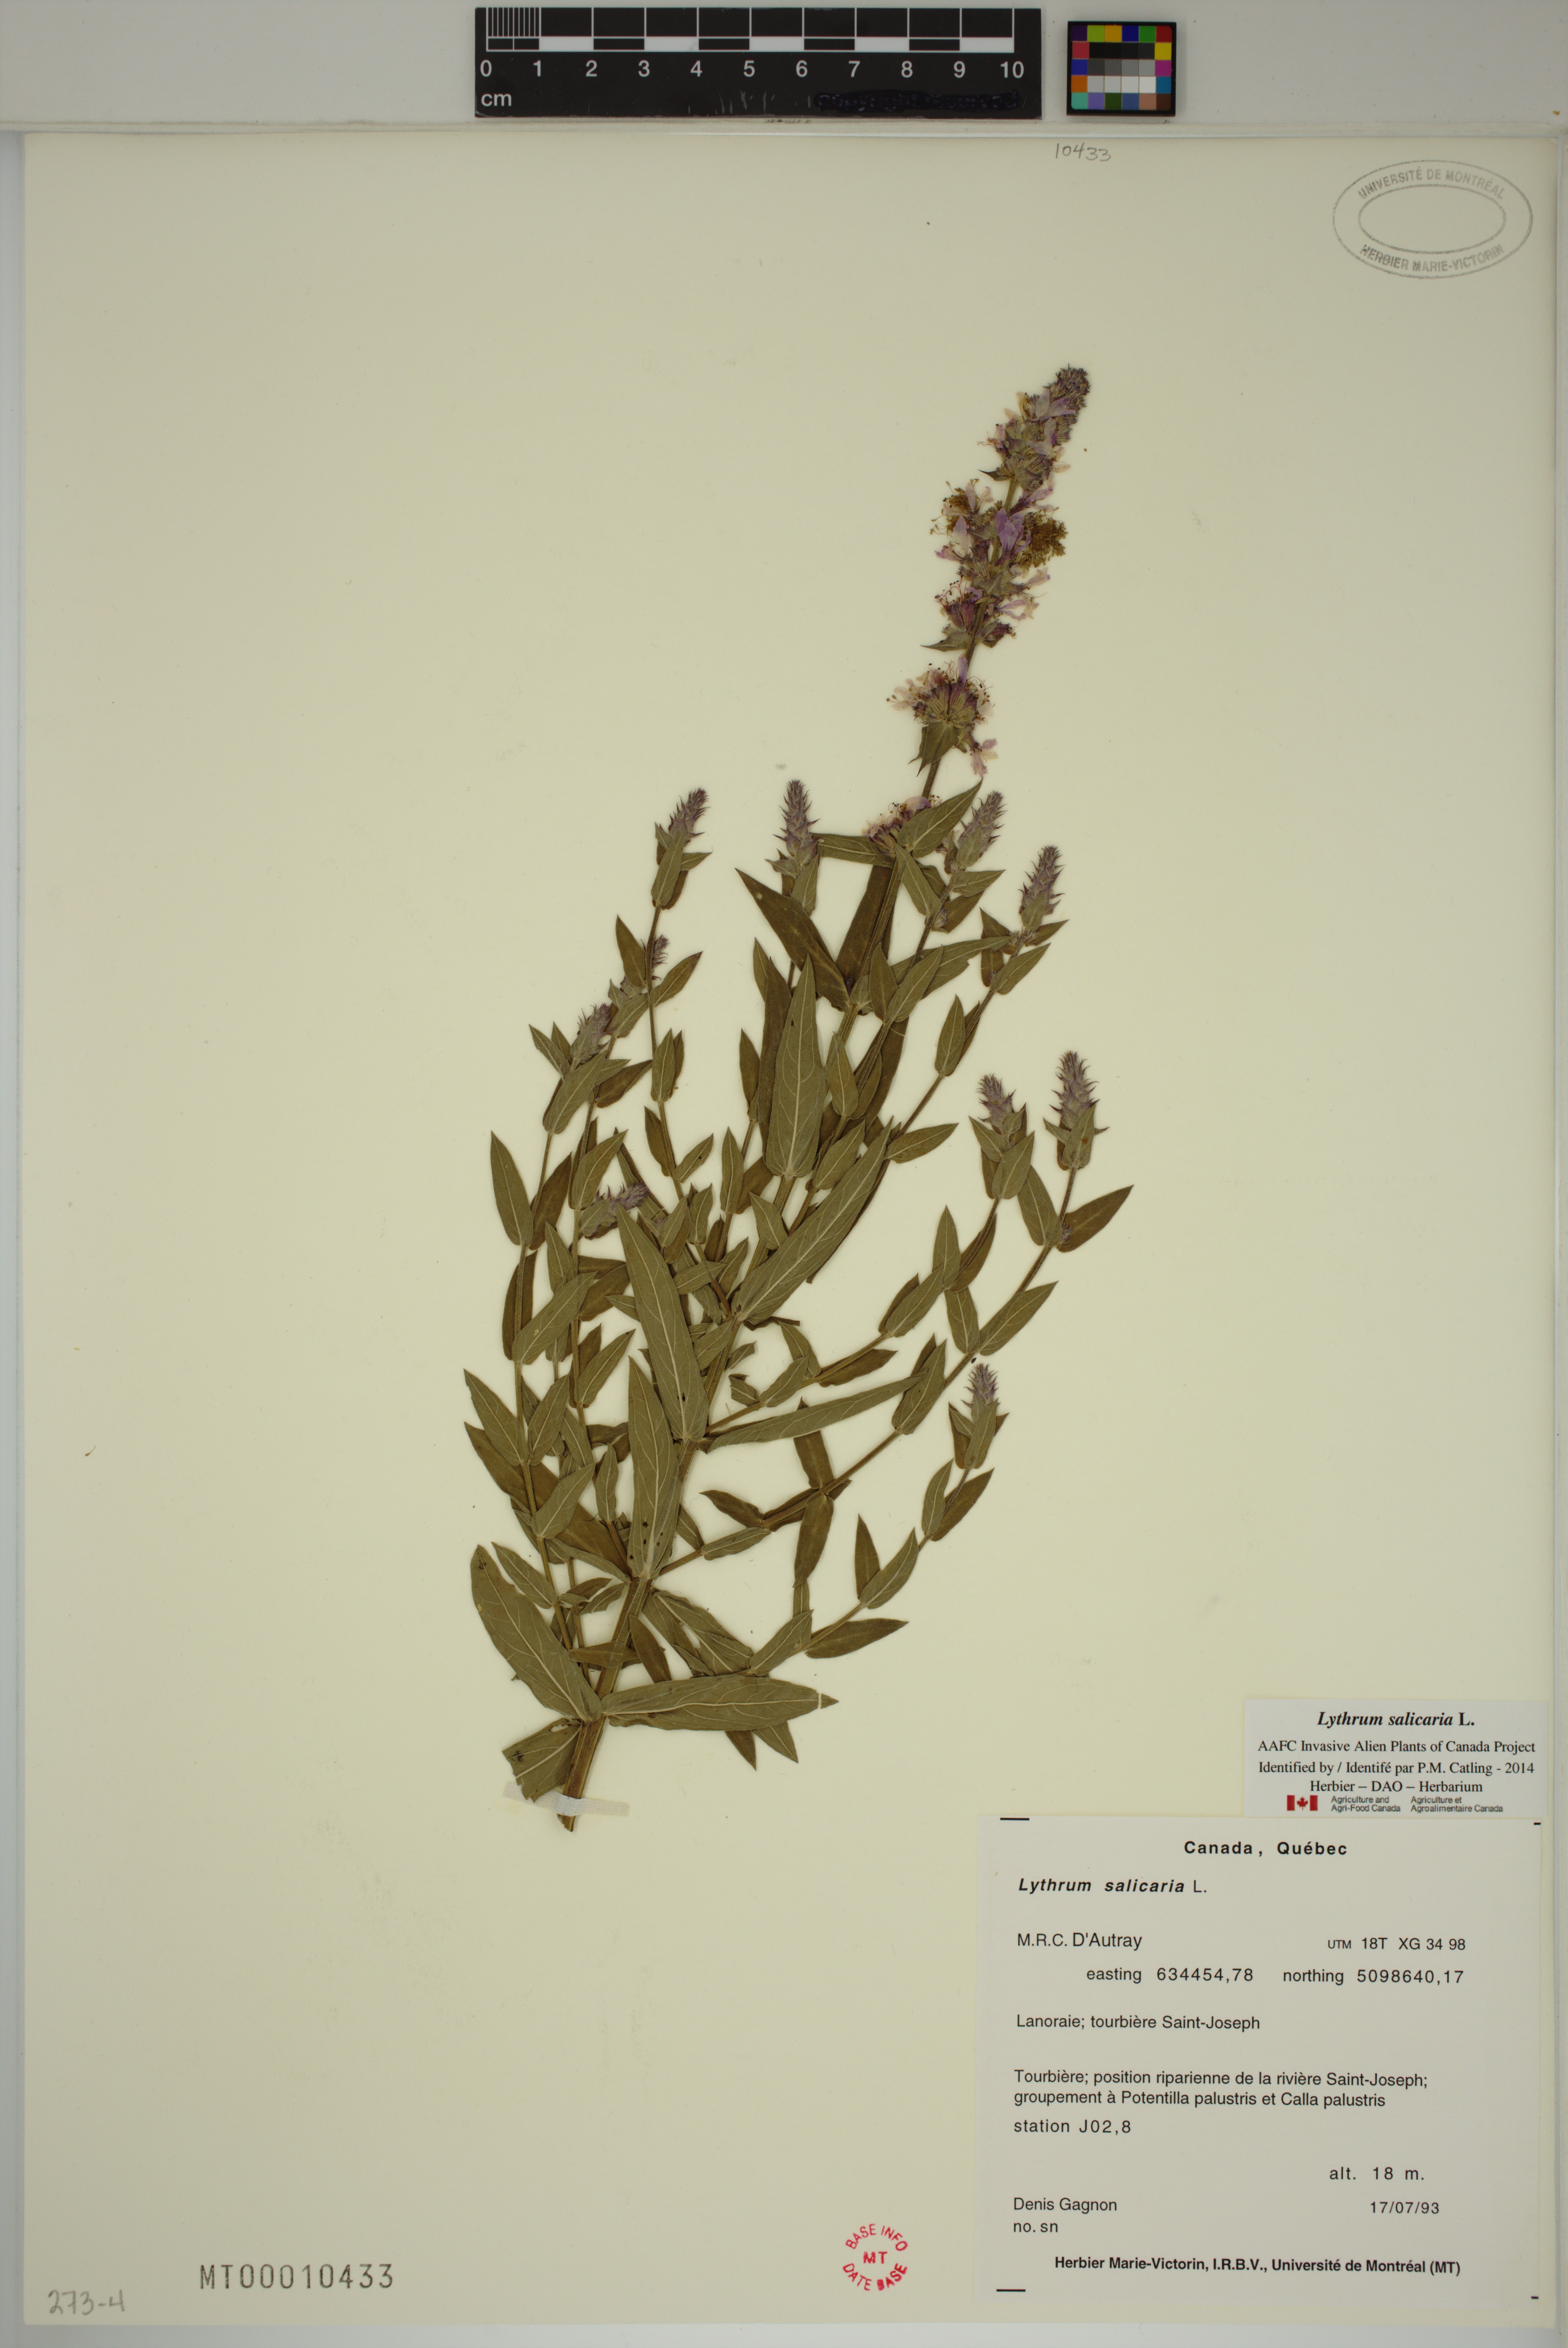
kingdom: Plantae
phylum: Tracheophyta
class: Magnoliopsida
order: Myrtales
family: Lythraceae
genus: Lythrum
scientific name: Lythrum salicaria
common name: Purple loosestrife
